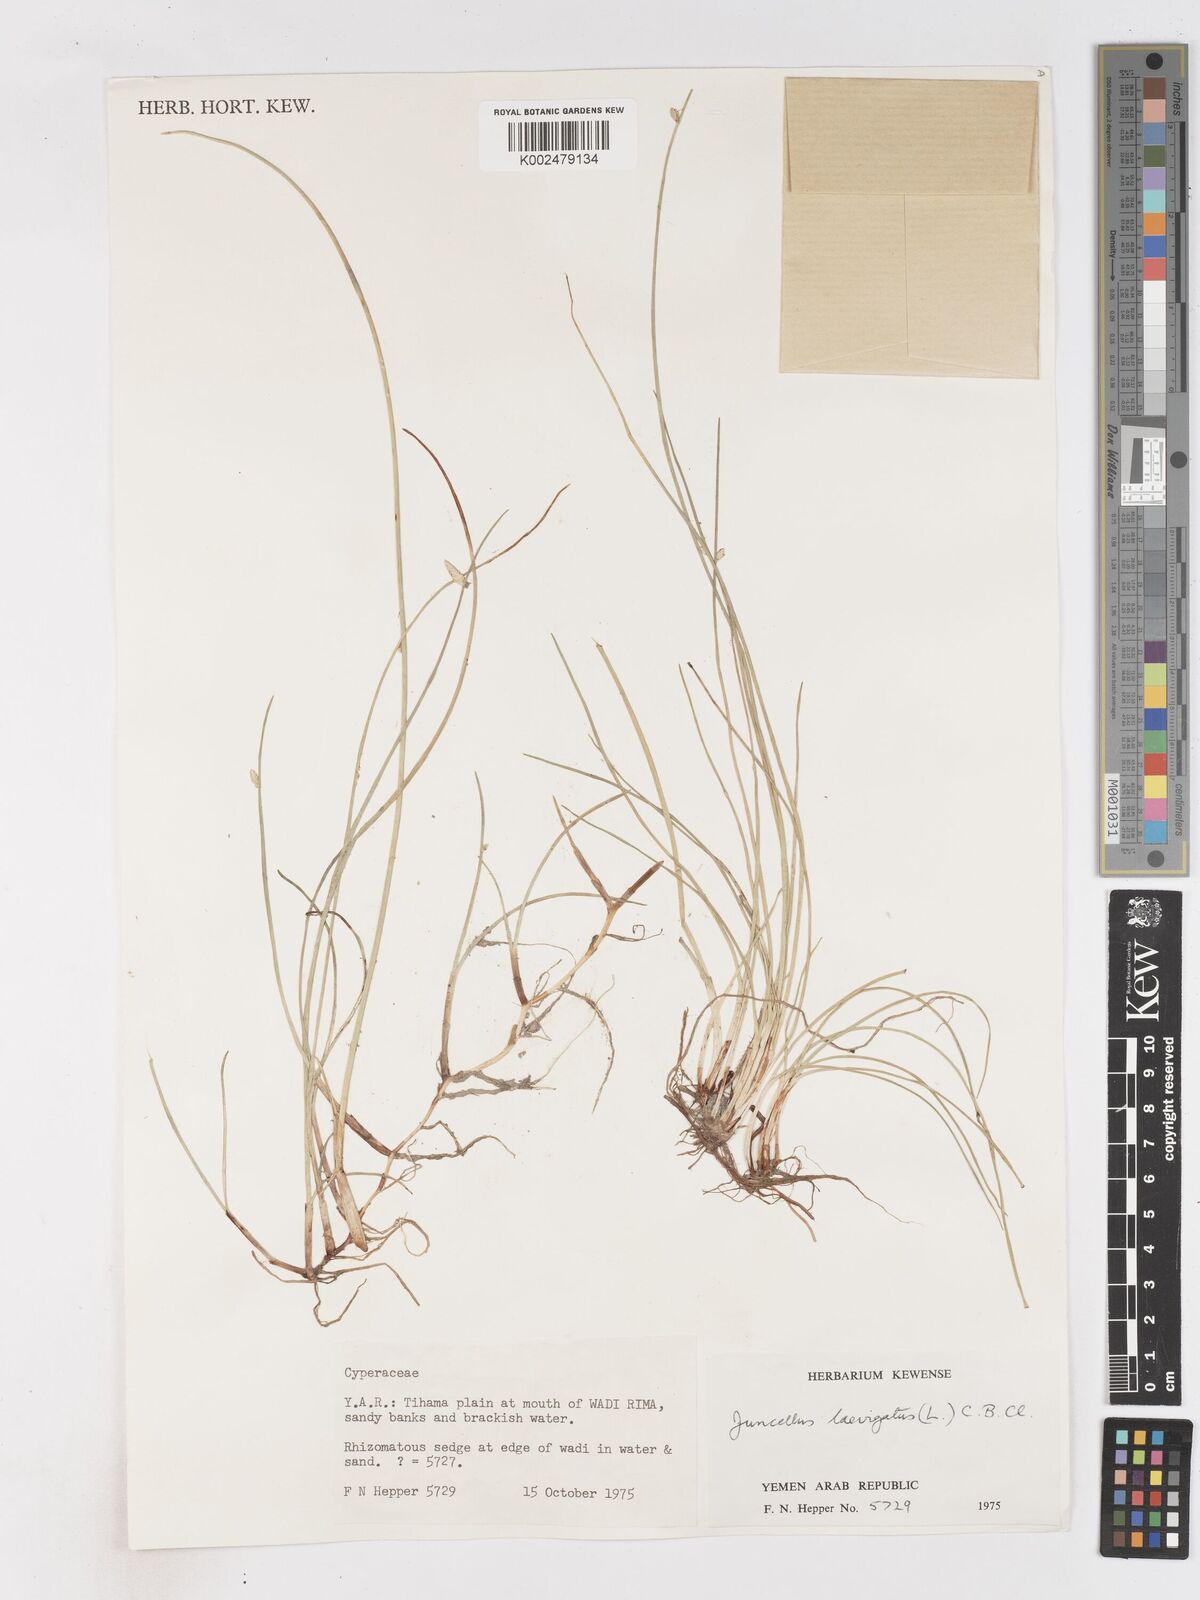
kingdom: Plantae
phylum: Tracheophyta
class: Liliopsida
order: Poales
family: Cyperaceae
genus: Cyperus
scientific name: Cyperus laevigatus
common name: Smooth flat sedge
